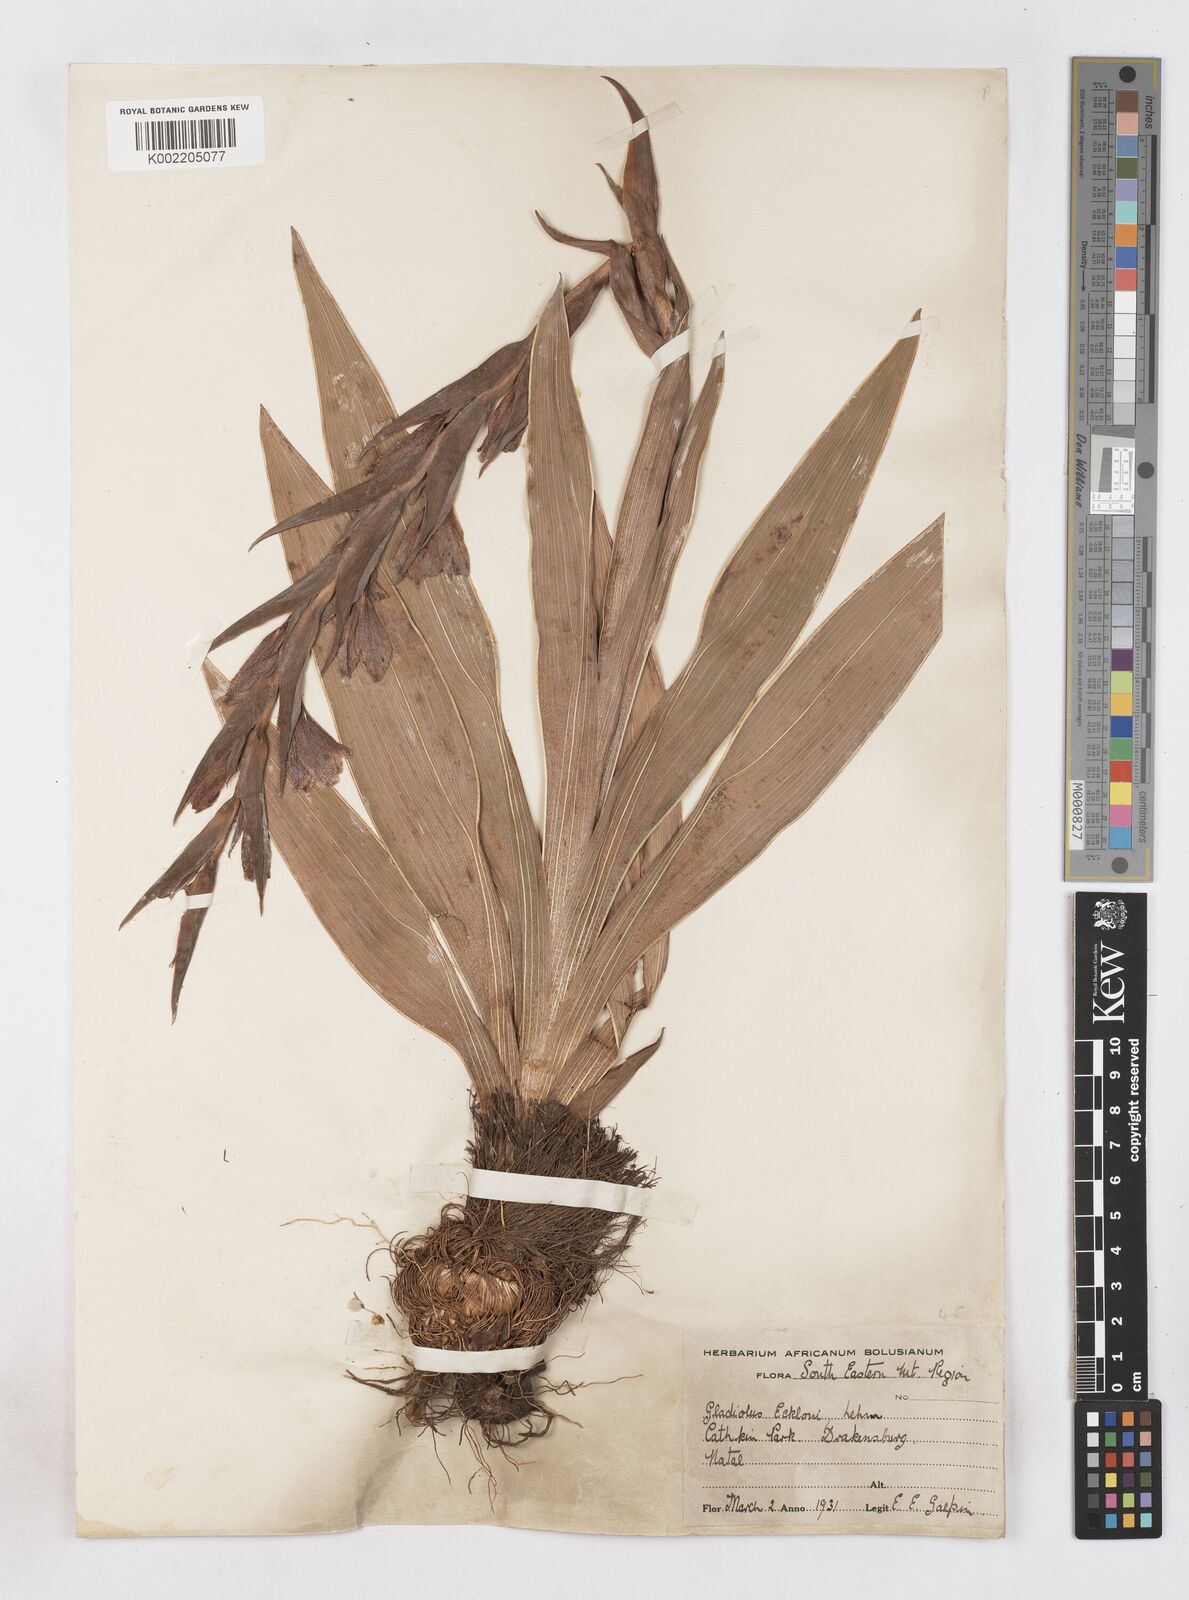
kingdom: Plantae
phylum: Tracheophyta
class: Liliopsida
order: Asparagales
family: Iridaceae
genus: Gladiolus
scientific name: Gladiolus ecklonii
